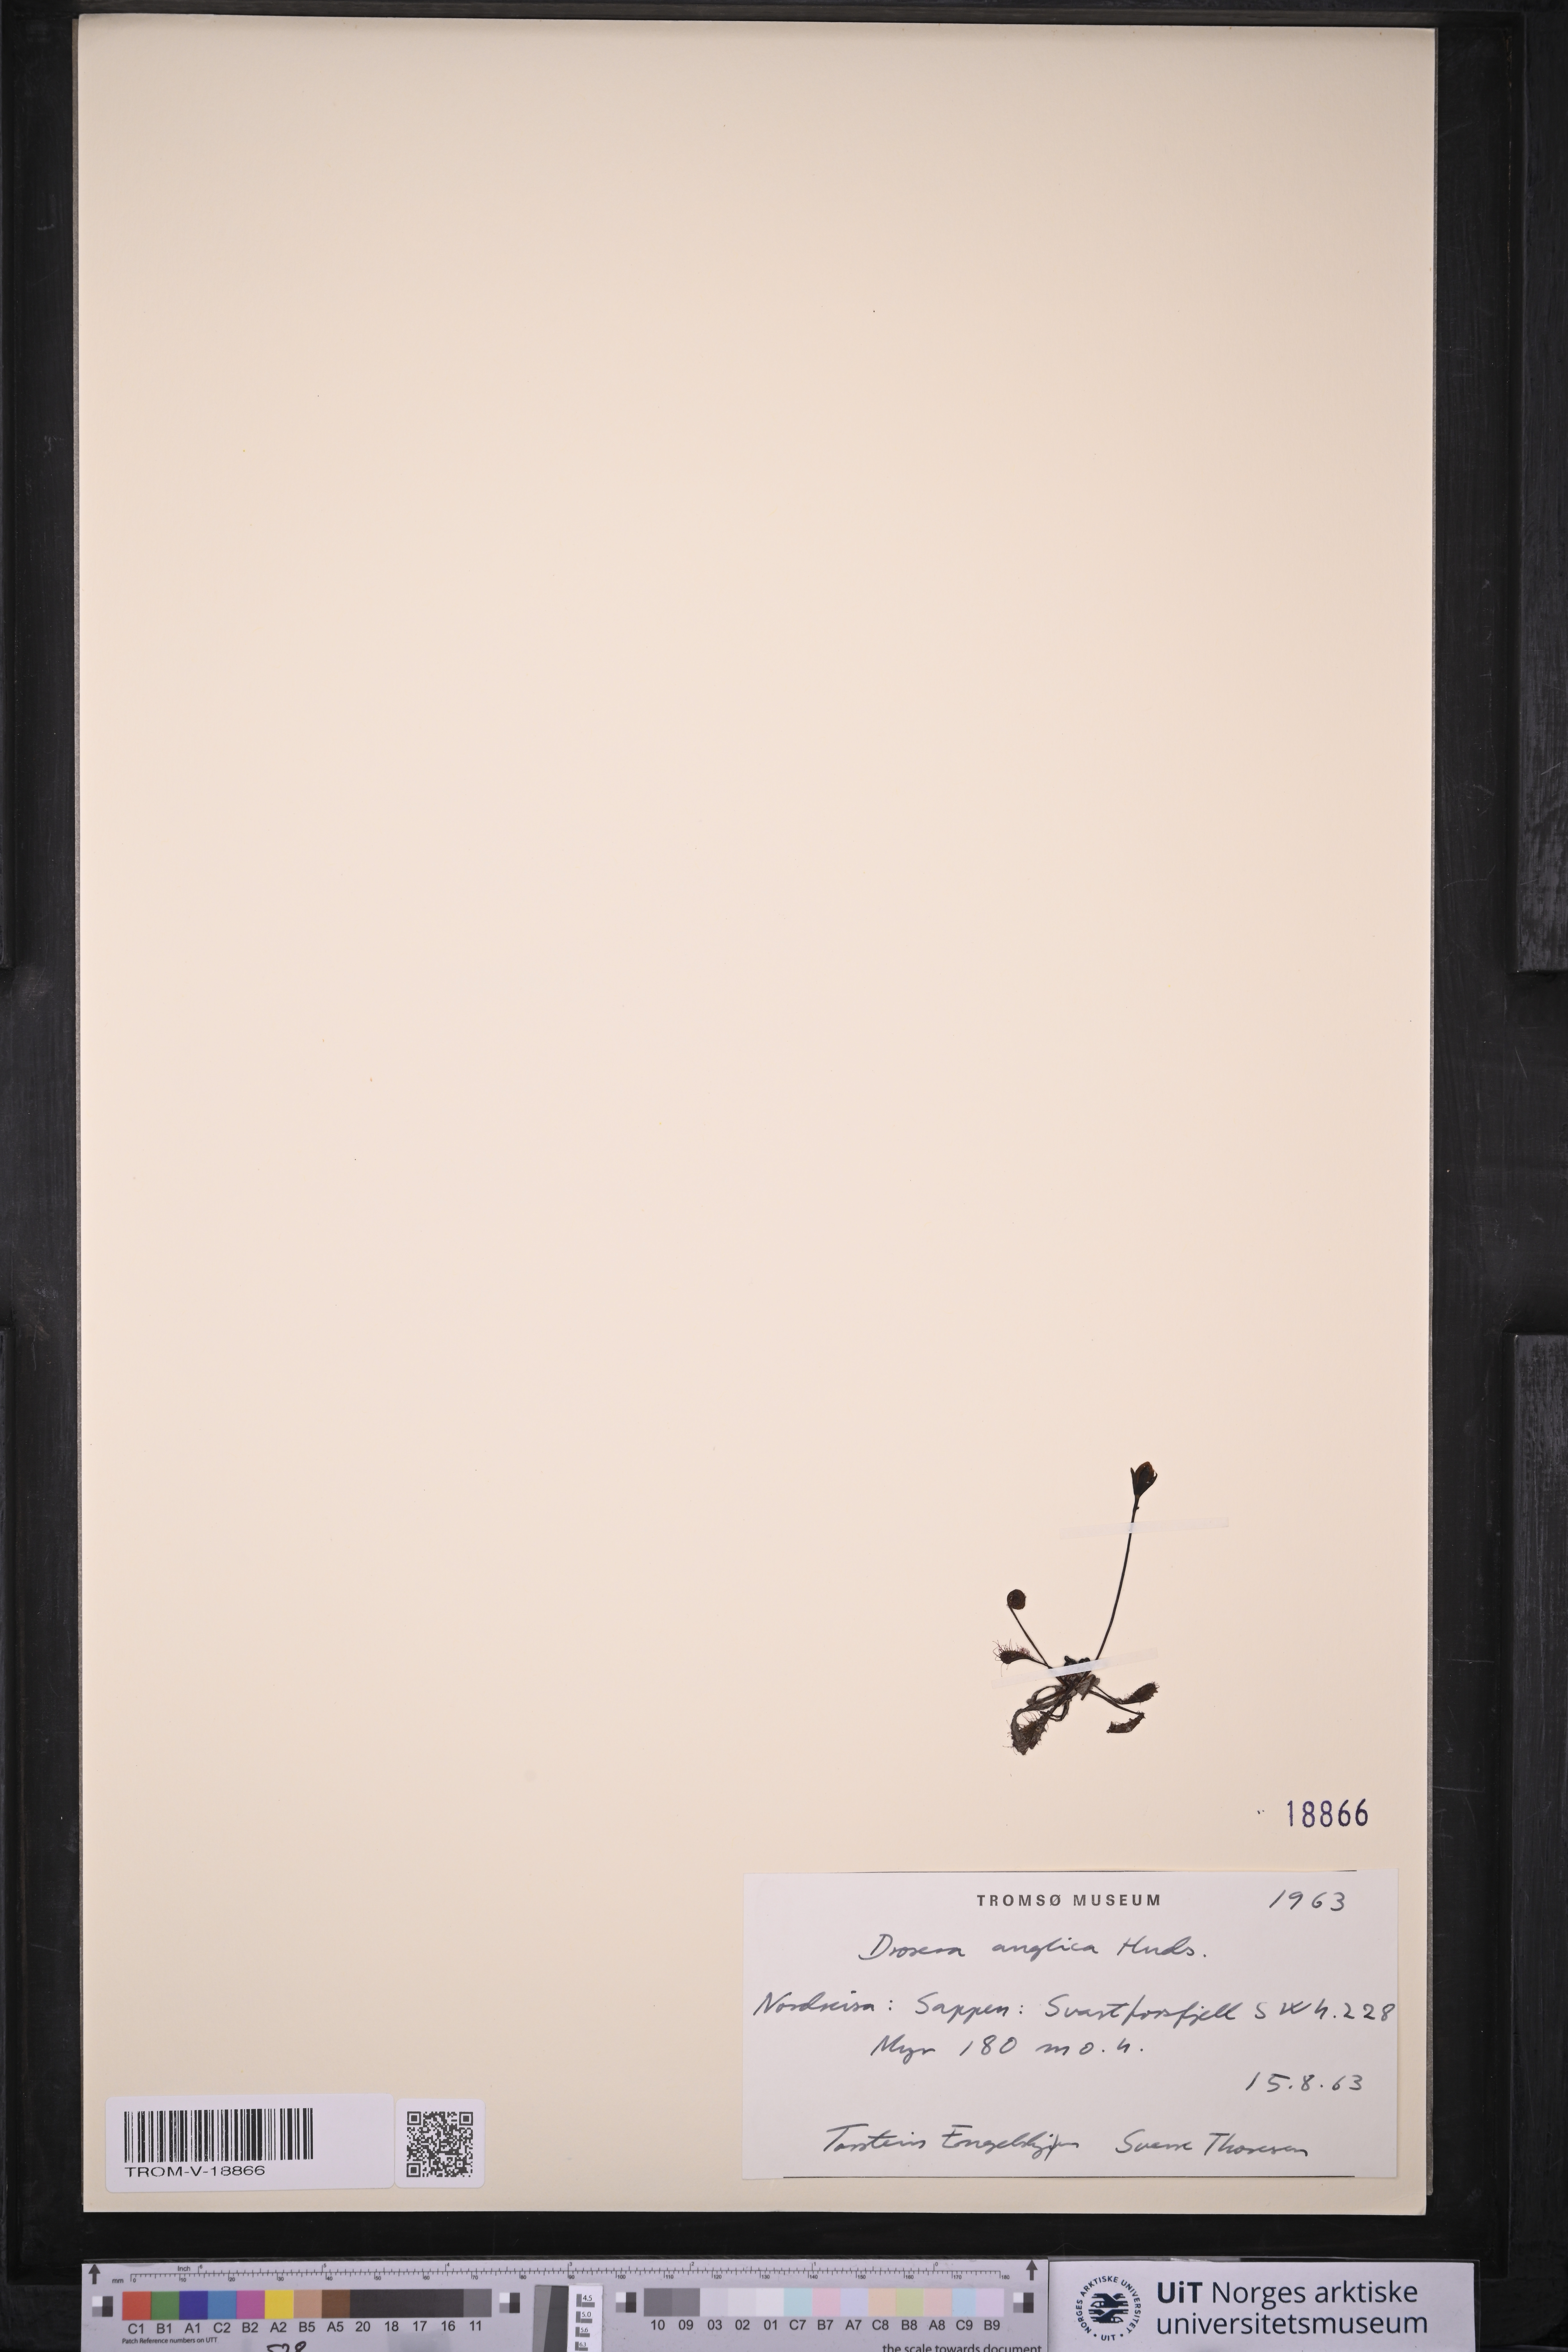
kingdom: Plantae
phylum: Tracheophyta
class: Magnoliopsida
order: Caryophyllales
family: Droseraceae
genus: Drosera
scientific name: Drosera anglica
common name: Great sundew
